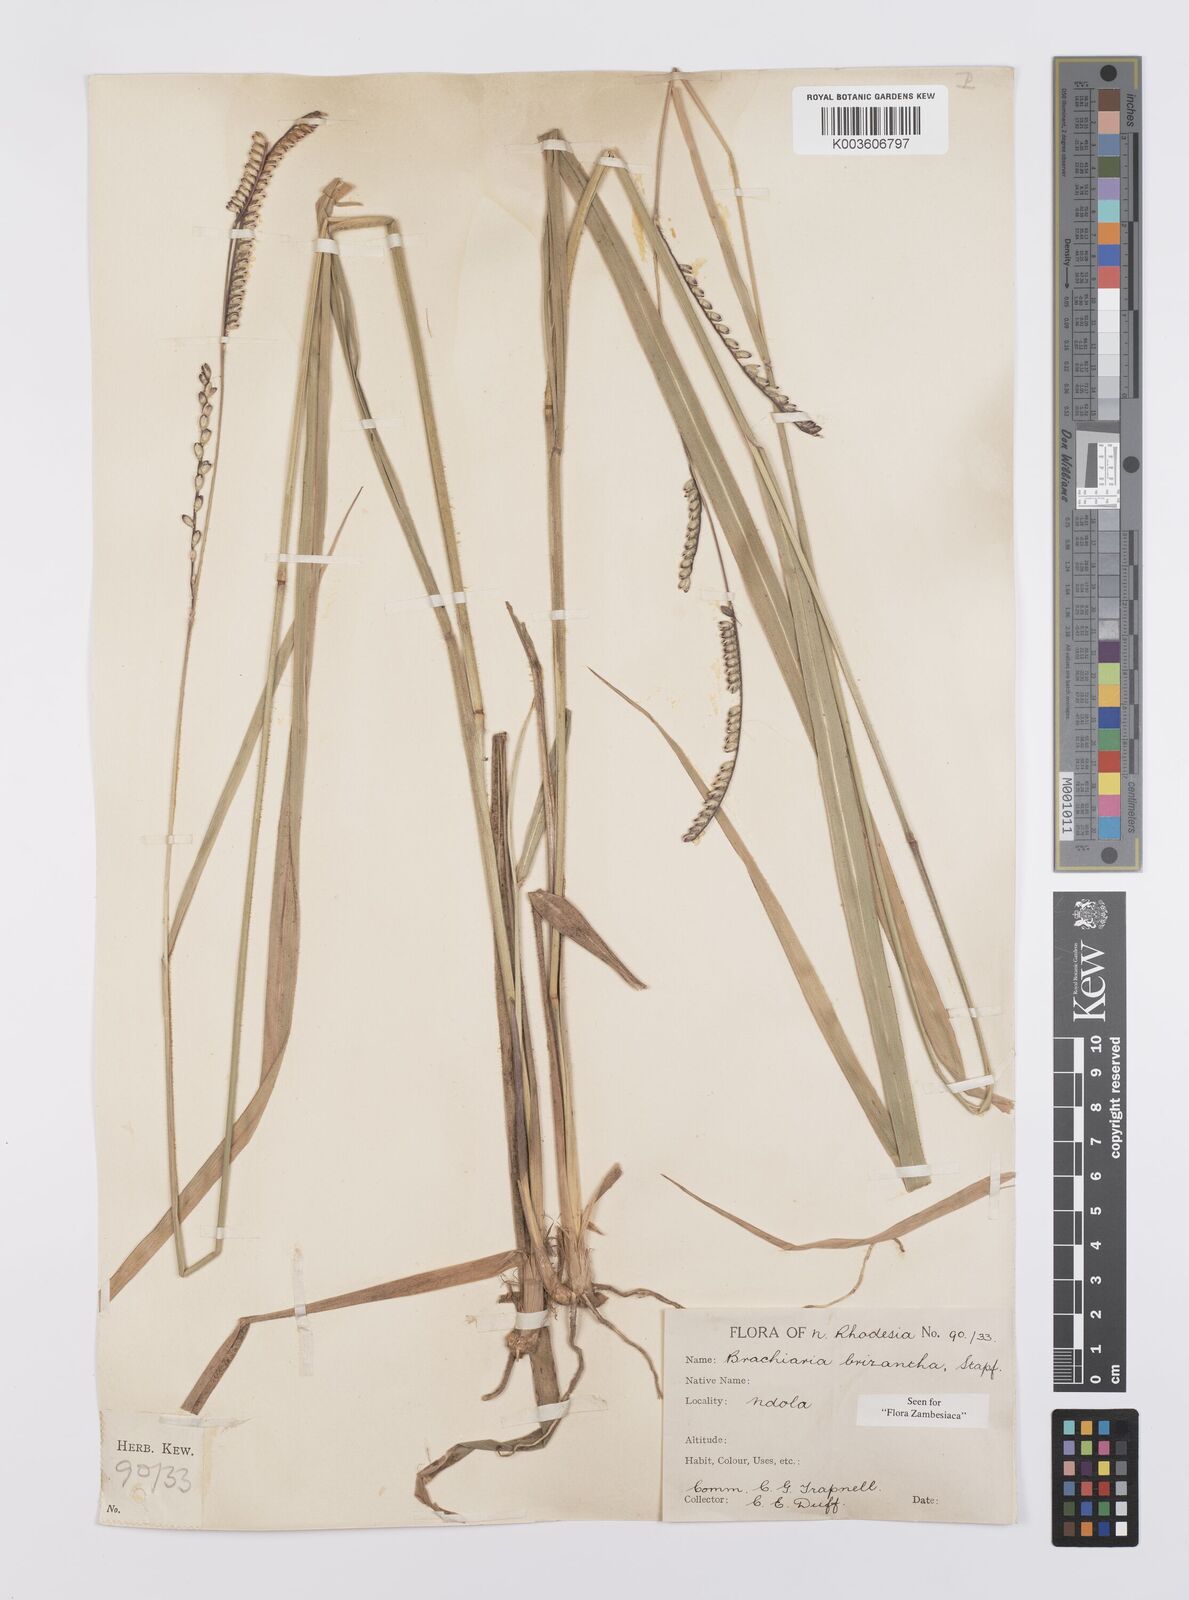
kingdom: Plantae
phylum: Tracheophyta
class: Liliopsida
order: Poales
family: Poaceae
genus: Urochloa
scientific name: Urochloa brizantha
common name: Palisade signalgrass
